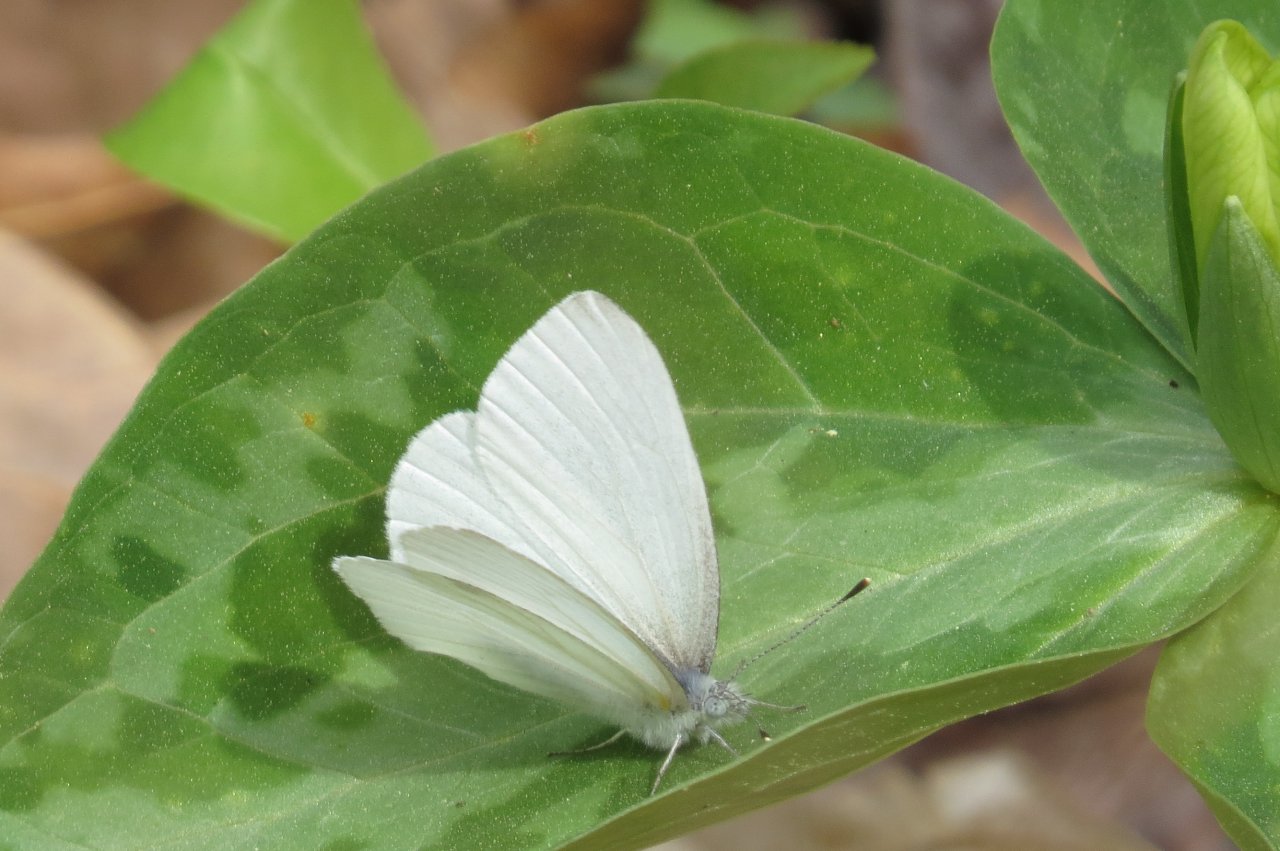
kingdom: Animalia
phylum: Arthropoda
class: Insecta
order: Lepidoptera
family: Pieridae
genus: Pieris
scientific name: Pieris virginiensis
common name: West Virginia White
